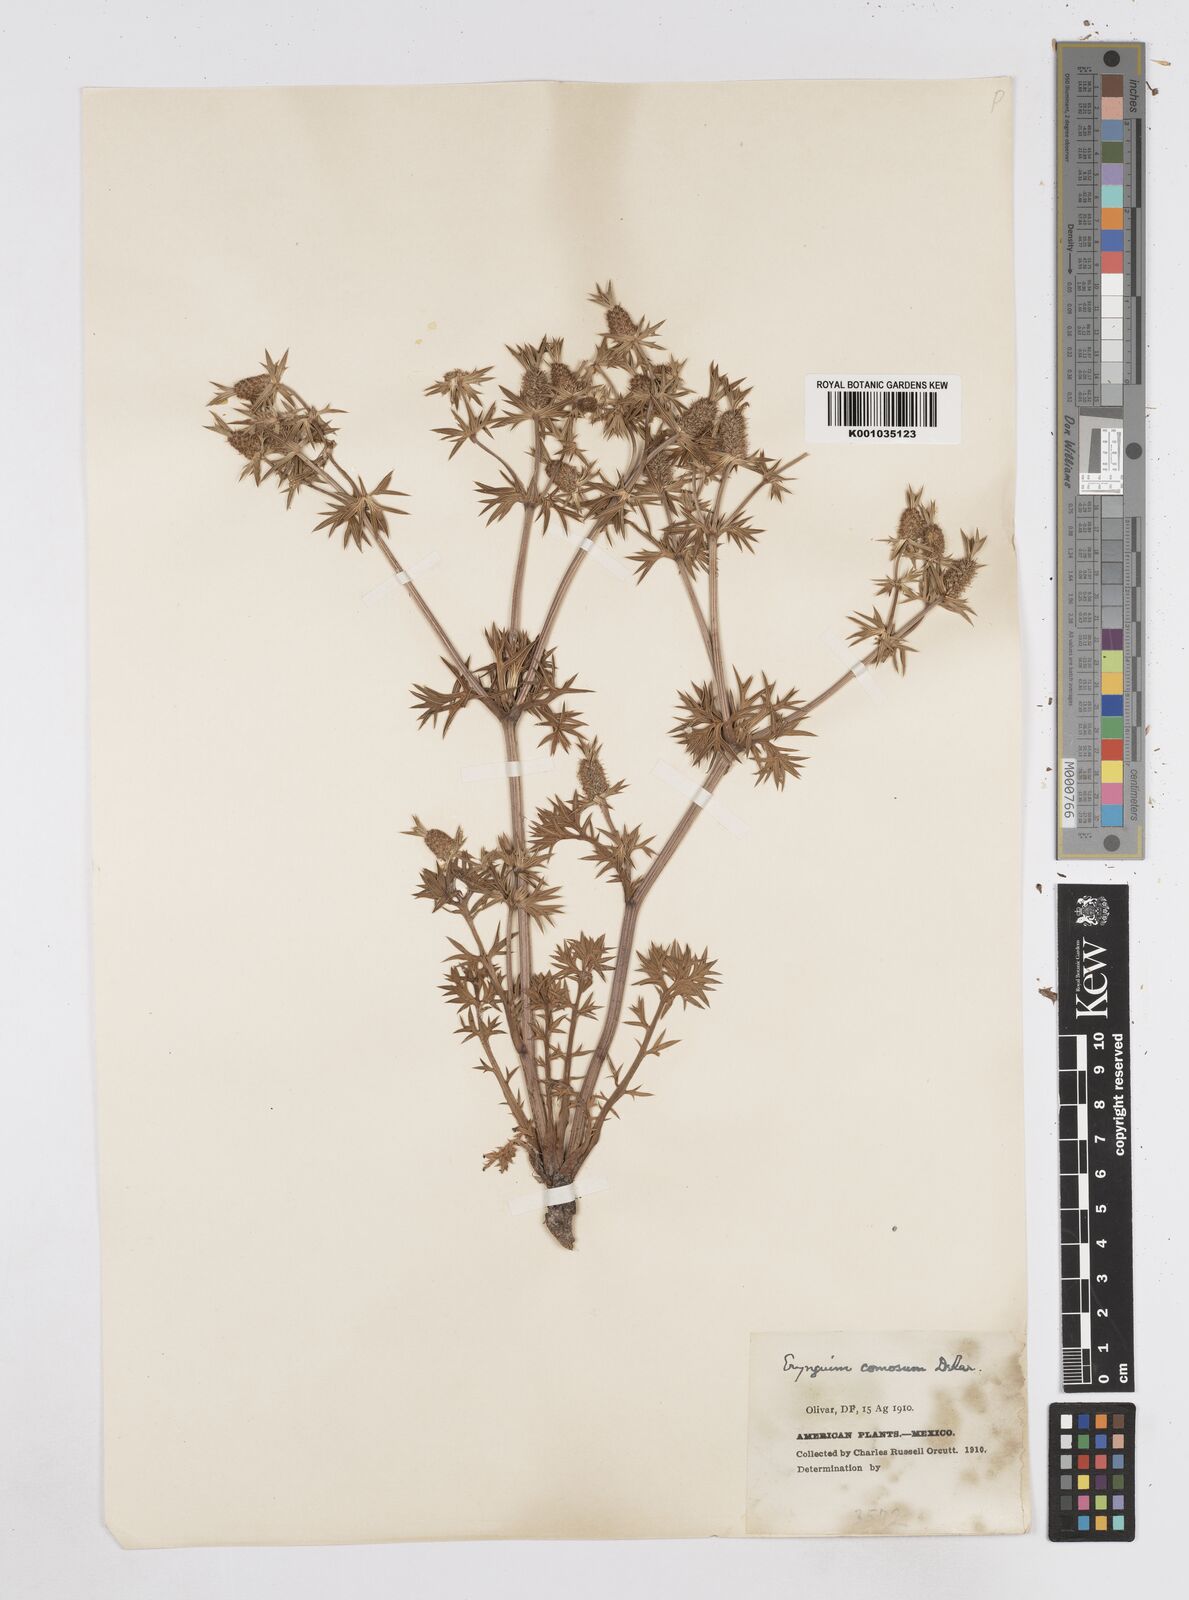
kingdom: Plantae
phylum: Tracheophyta
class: Magnoliopsida
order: Apiales
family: Apiaceae
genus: Eryngium
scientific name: Eryngium comosum
